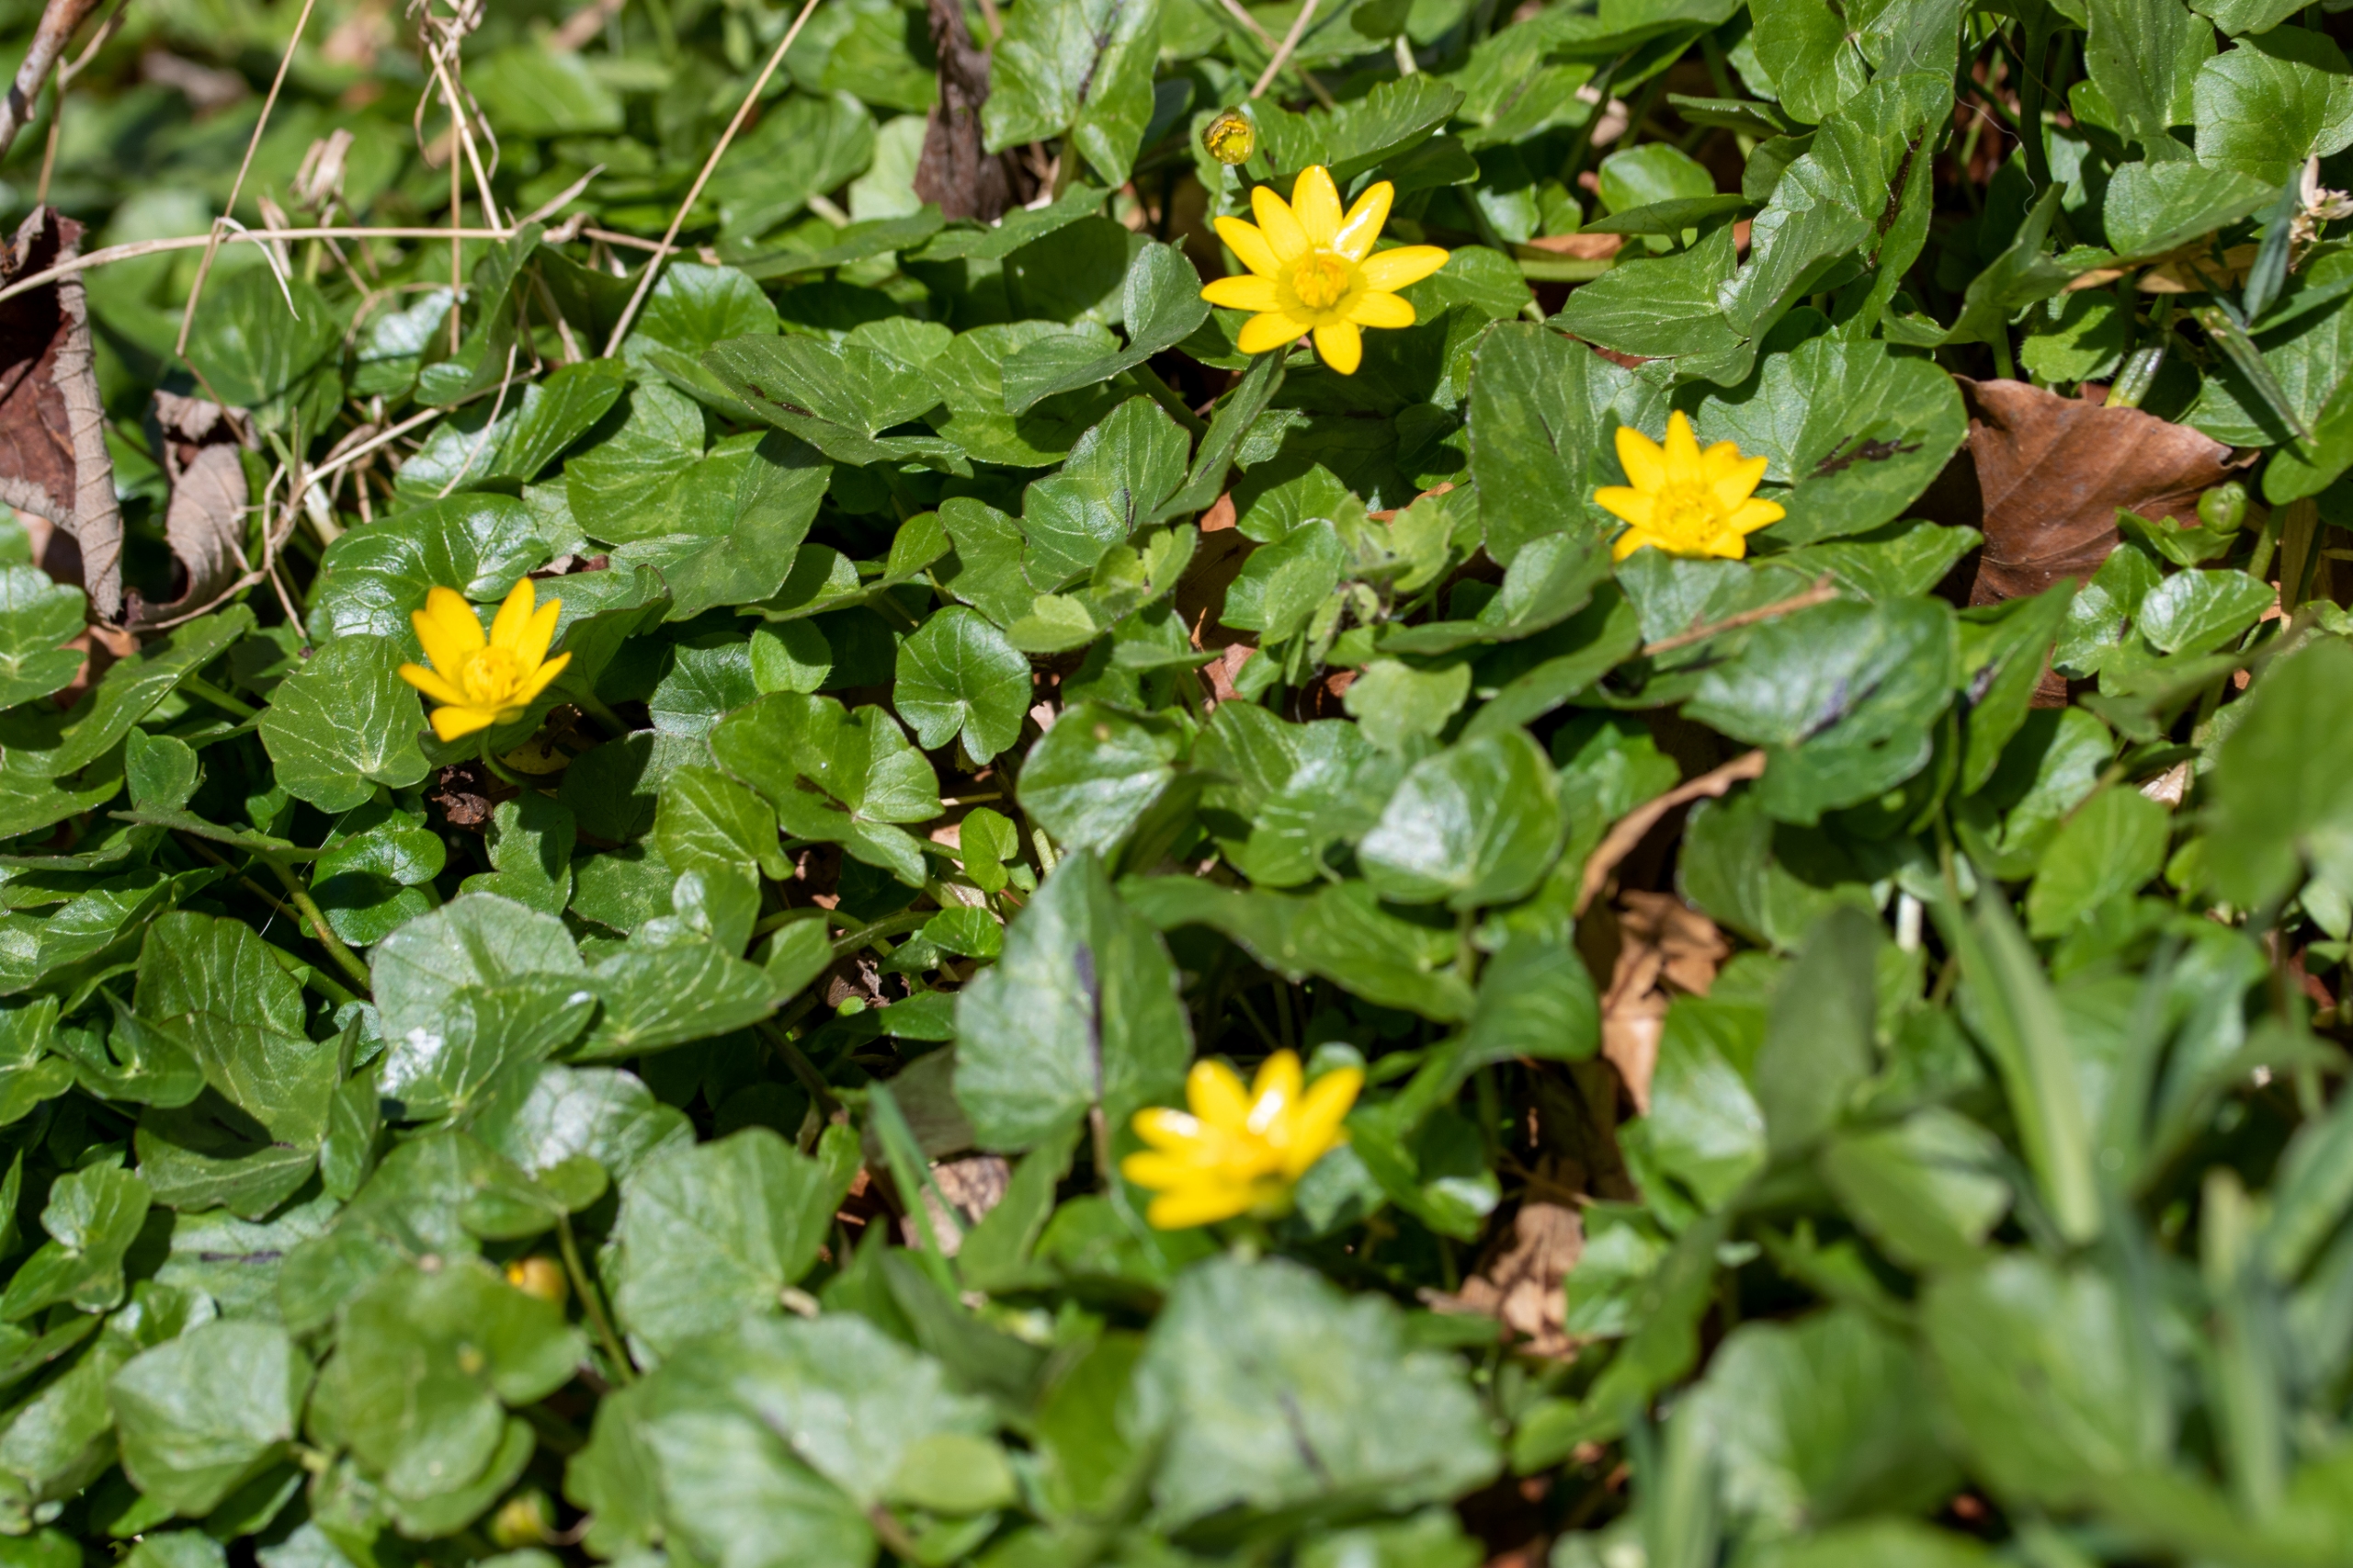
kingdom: Plantae
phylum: Tracheophyta
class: Magnoliopsida
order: Ranunculales
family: Ranunculaceae
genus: Ficaria
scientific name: Ficaria verna
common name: Vorterod
